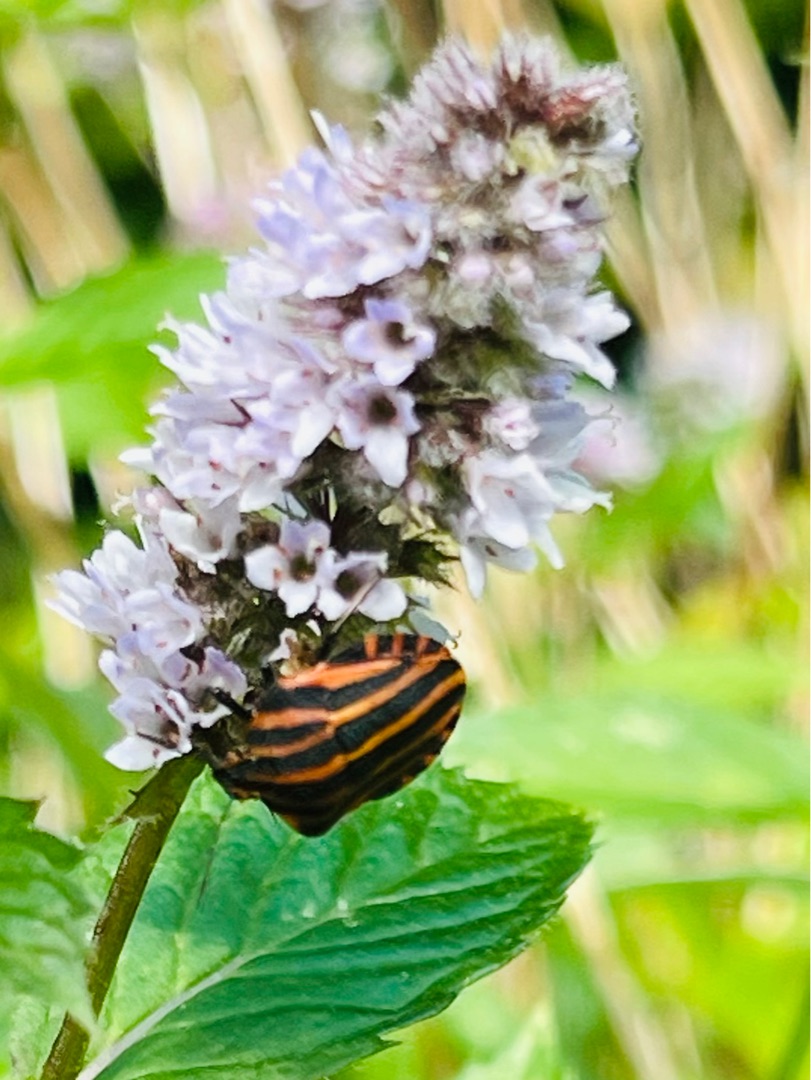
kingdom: Animalia
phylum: Arthropoda
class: Insecta
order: Hemiptera
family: Pentatomidae
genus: Graphosoma
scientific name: Graphosoma italicum
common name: Stribetæge
